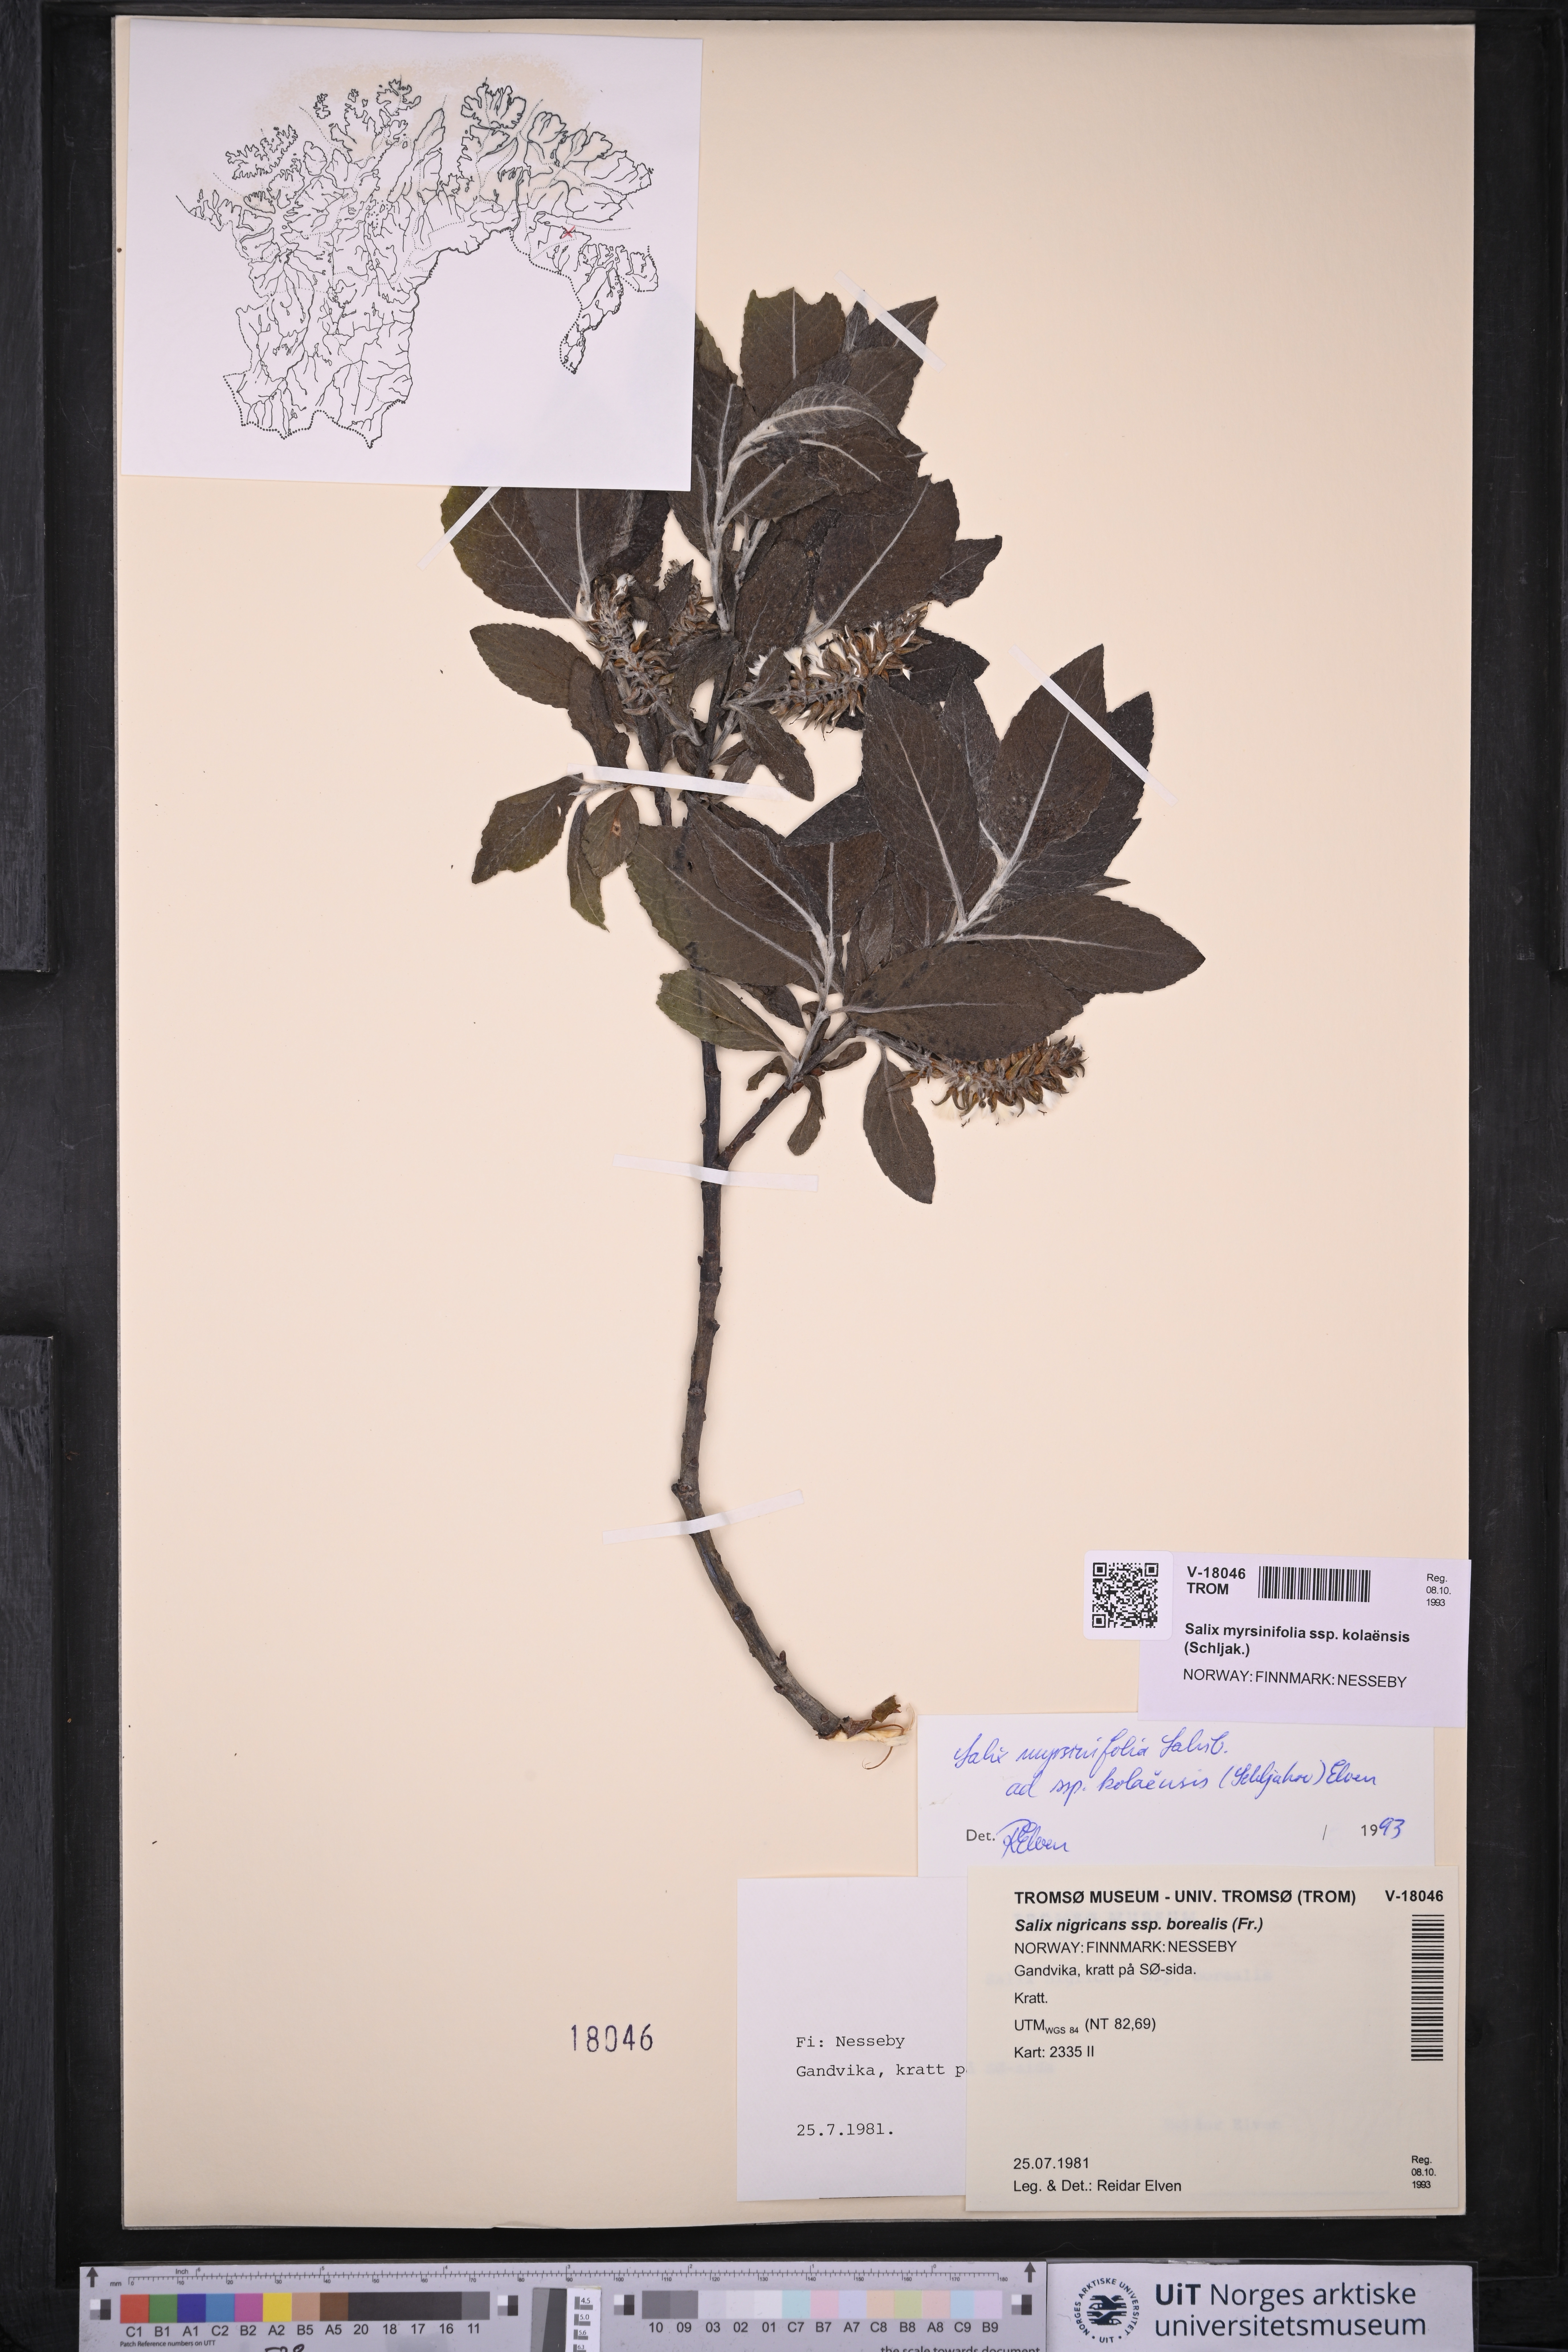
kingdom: Plantae
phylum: Tracheophyta
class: Magnoliopsida
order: Malpighiales
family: Salicaceae
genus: Salix
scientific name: Salix myrsinifolia
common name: Dark-leaved willow
